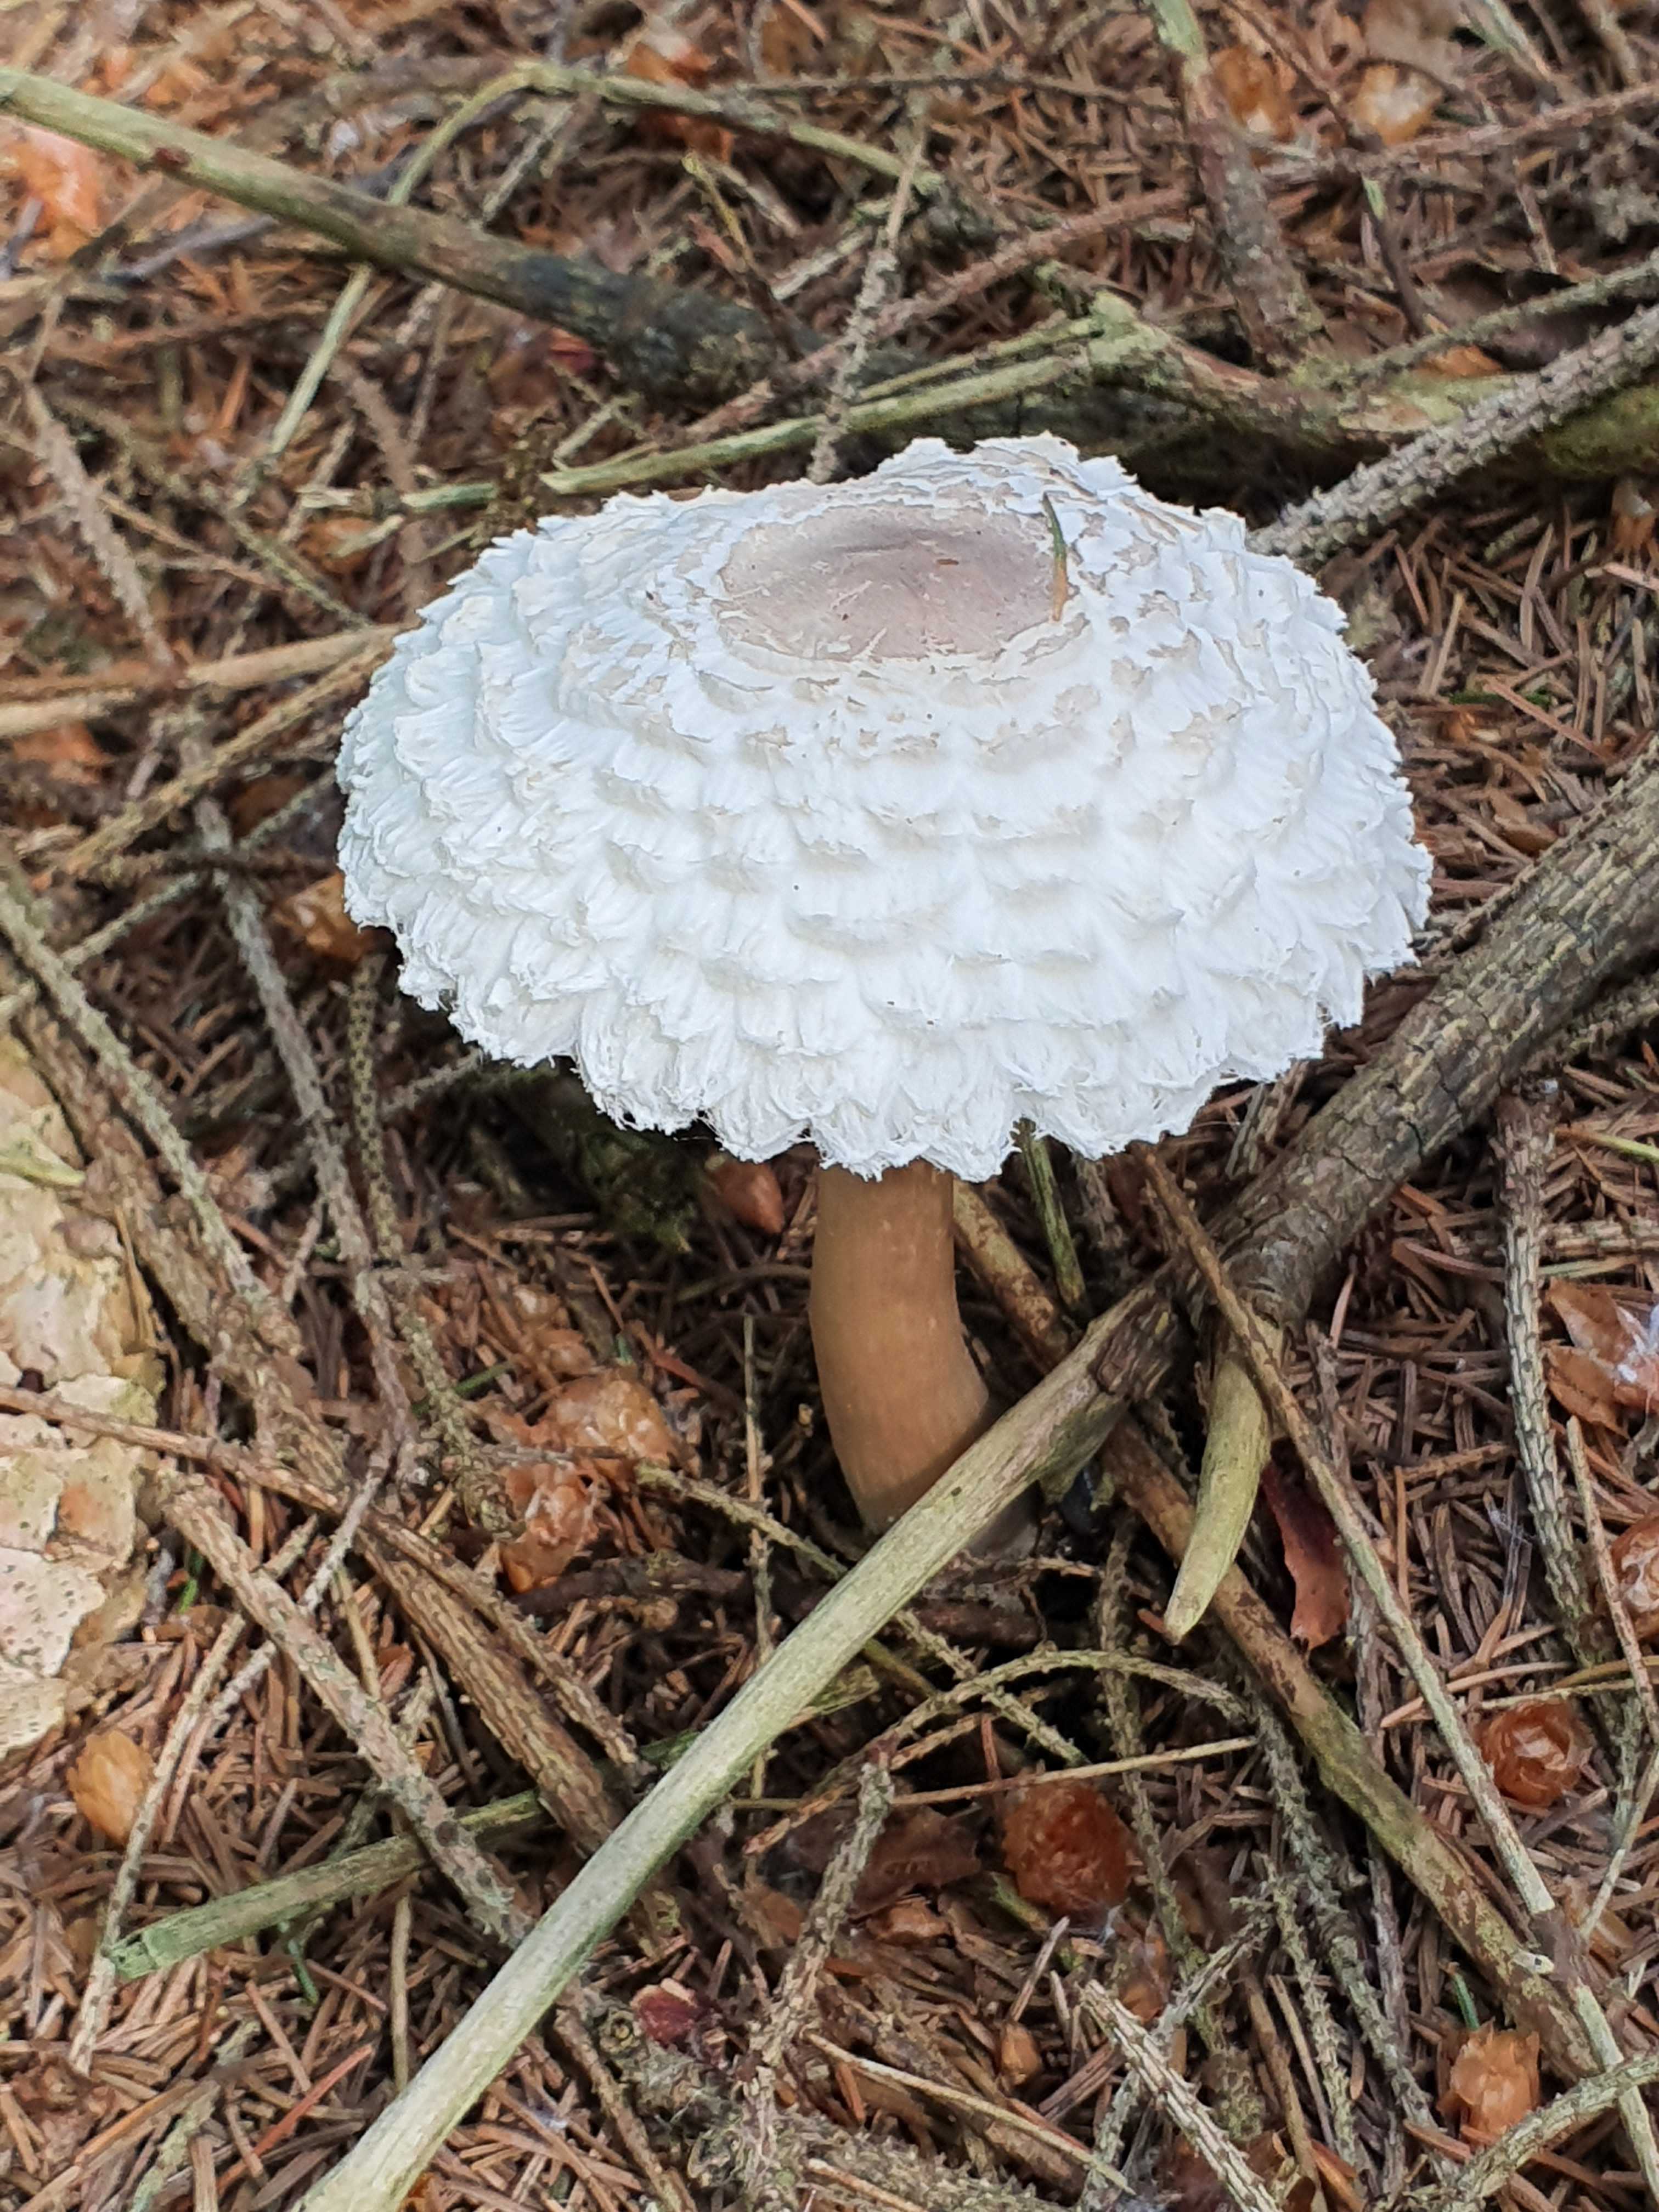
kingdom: Fungi
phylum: Basidiomycota
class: Agaricomycetes
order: Agaricales
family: Agaricaceae
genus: Leucoagaricus
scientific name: Leucoagaricus nympharum
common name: gran-silkehat
